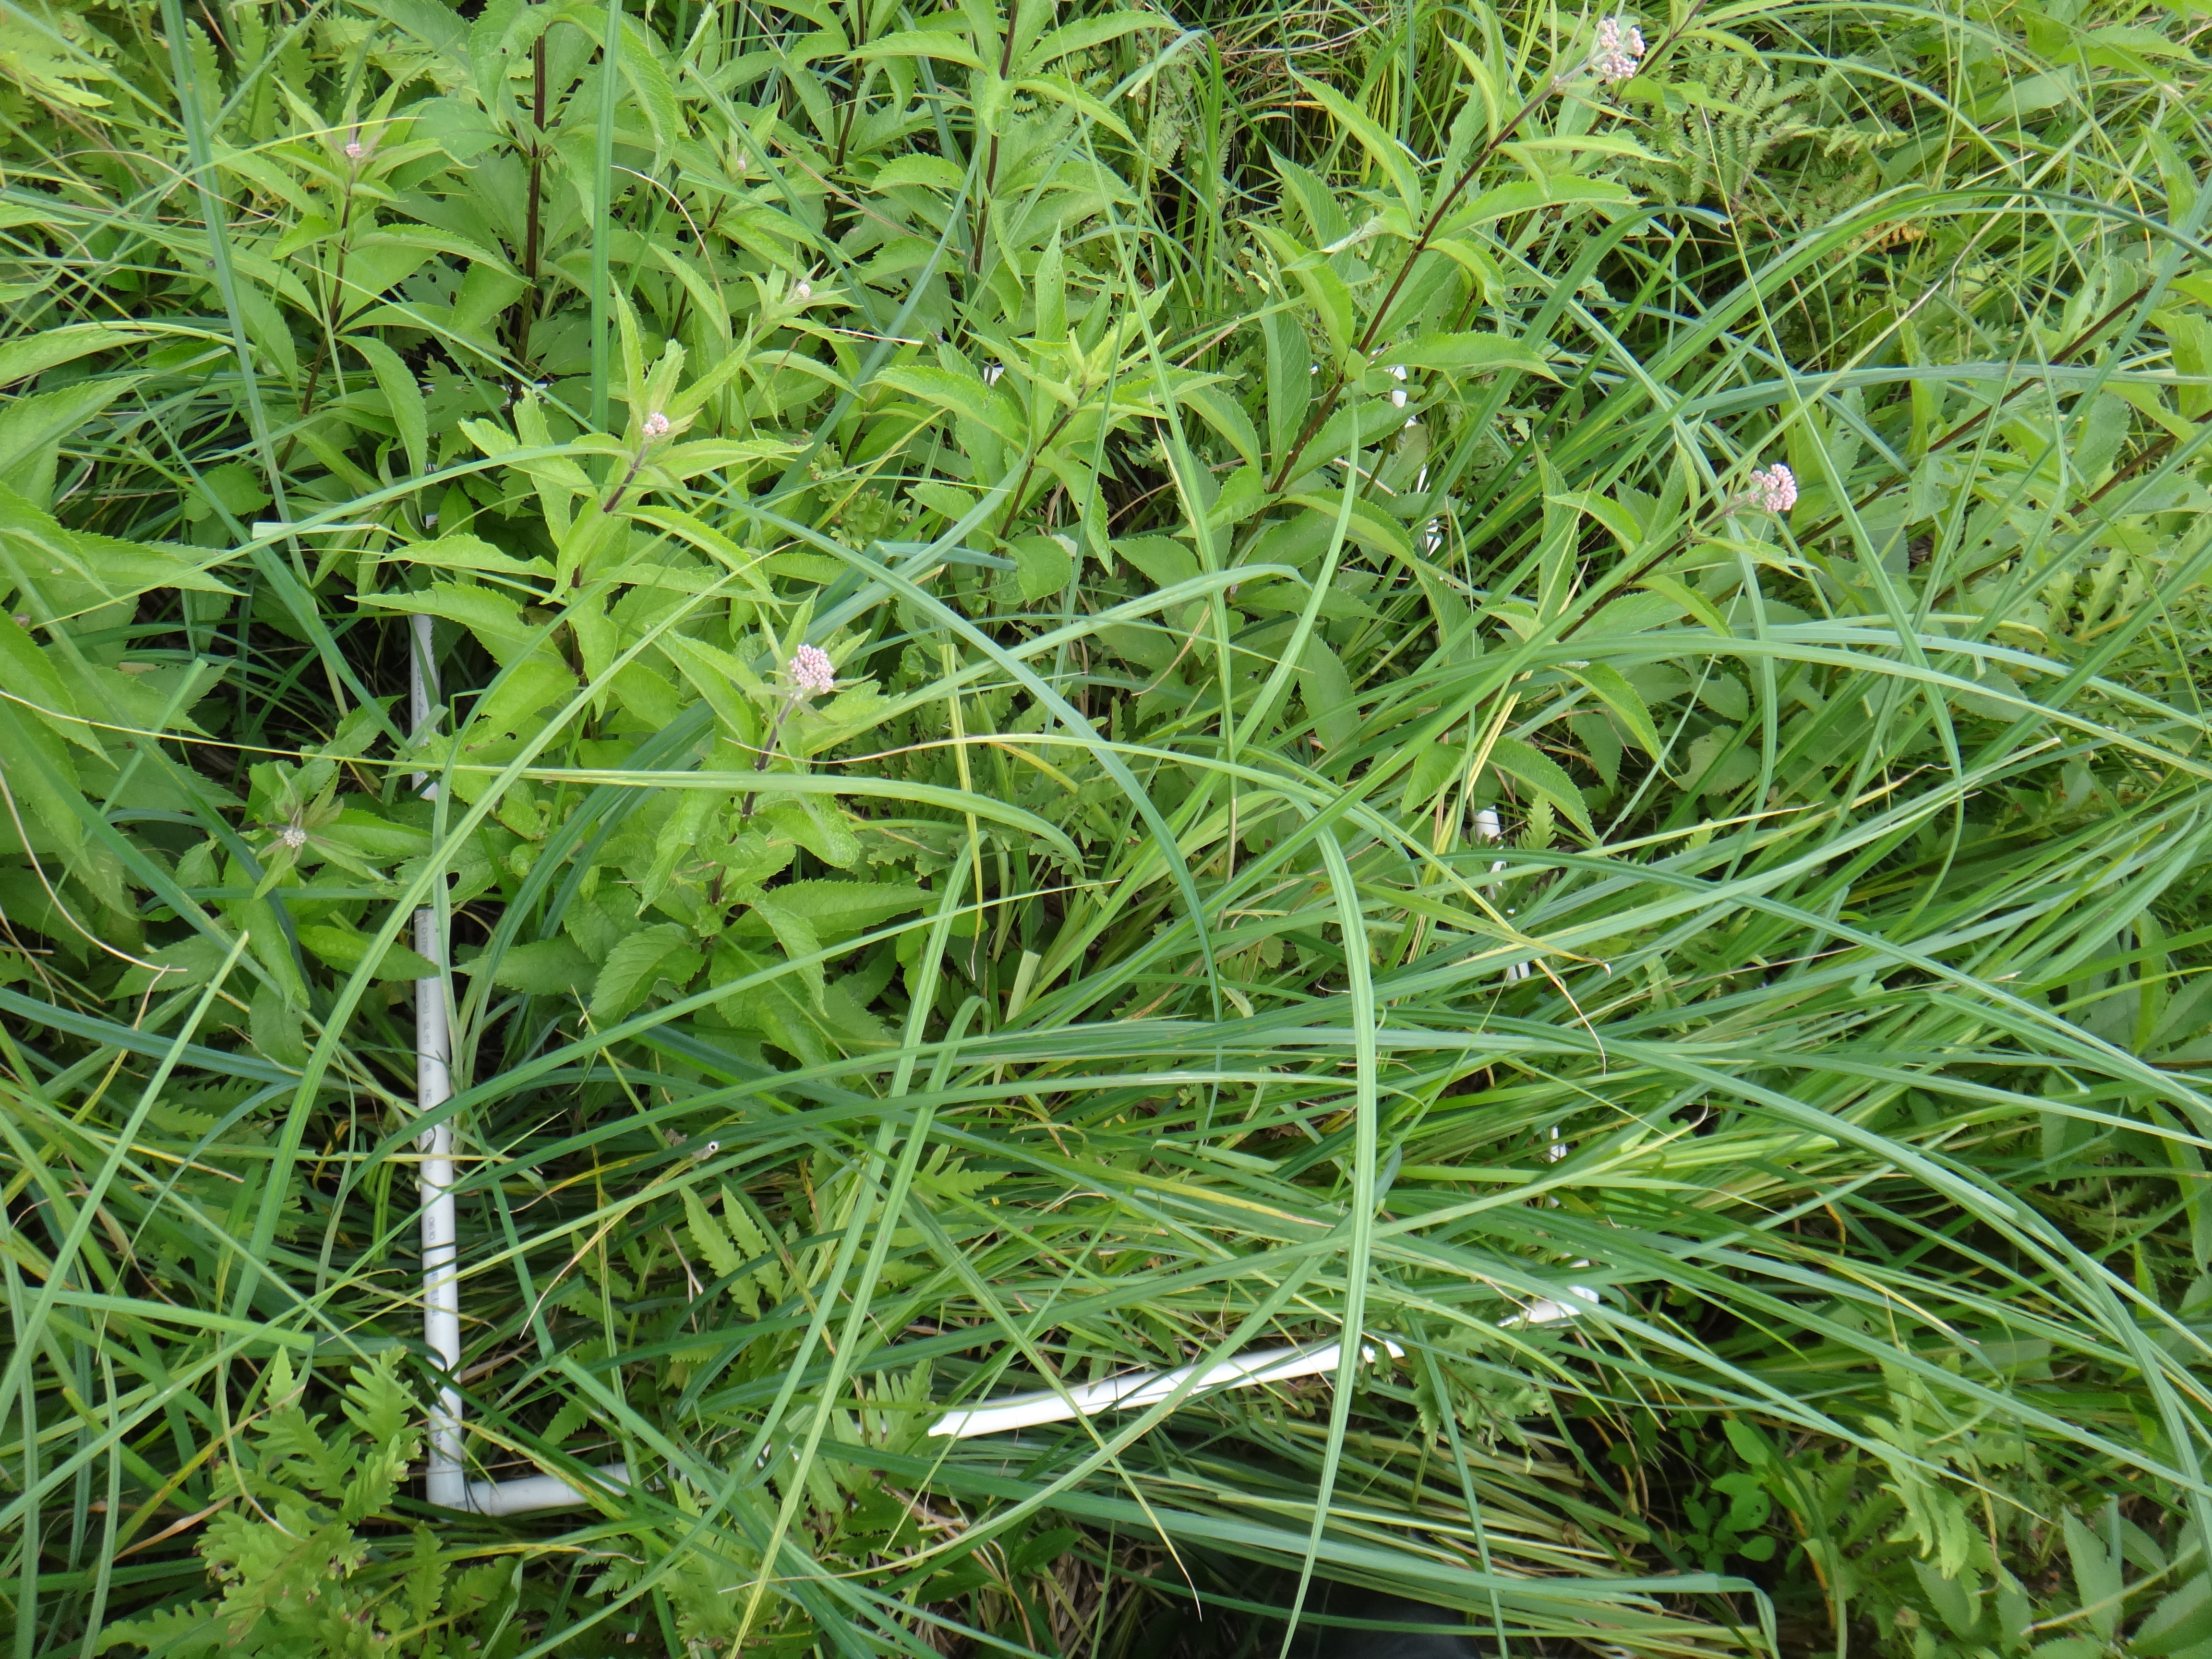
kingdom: Plantae
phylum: Tracheophyta
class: Magnoliopsida
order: Asterales
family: Asteraceae
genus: Eutrochium
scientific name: Eutrochium maculatum
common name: Spotted joe pye weed
